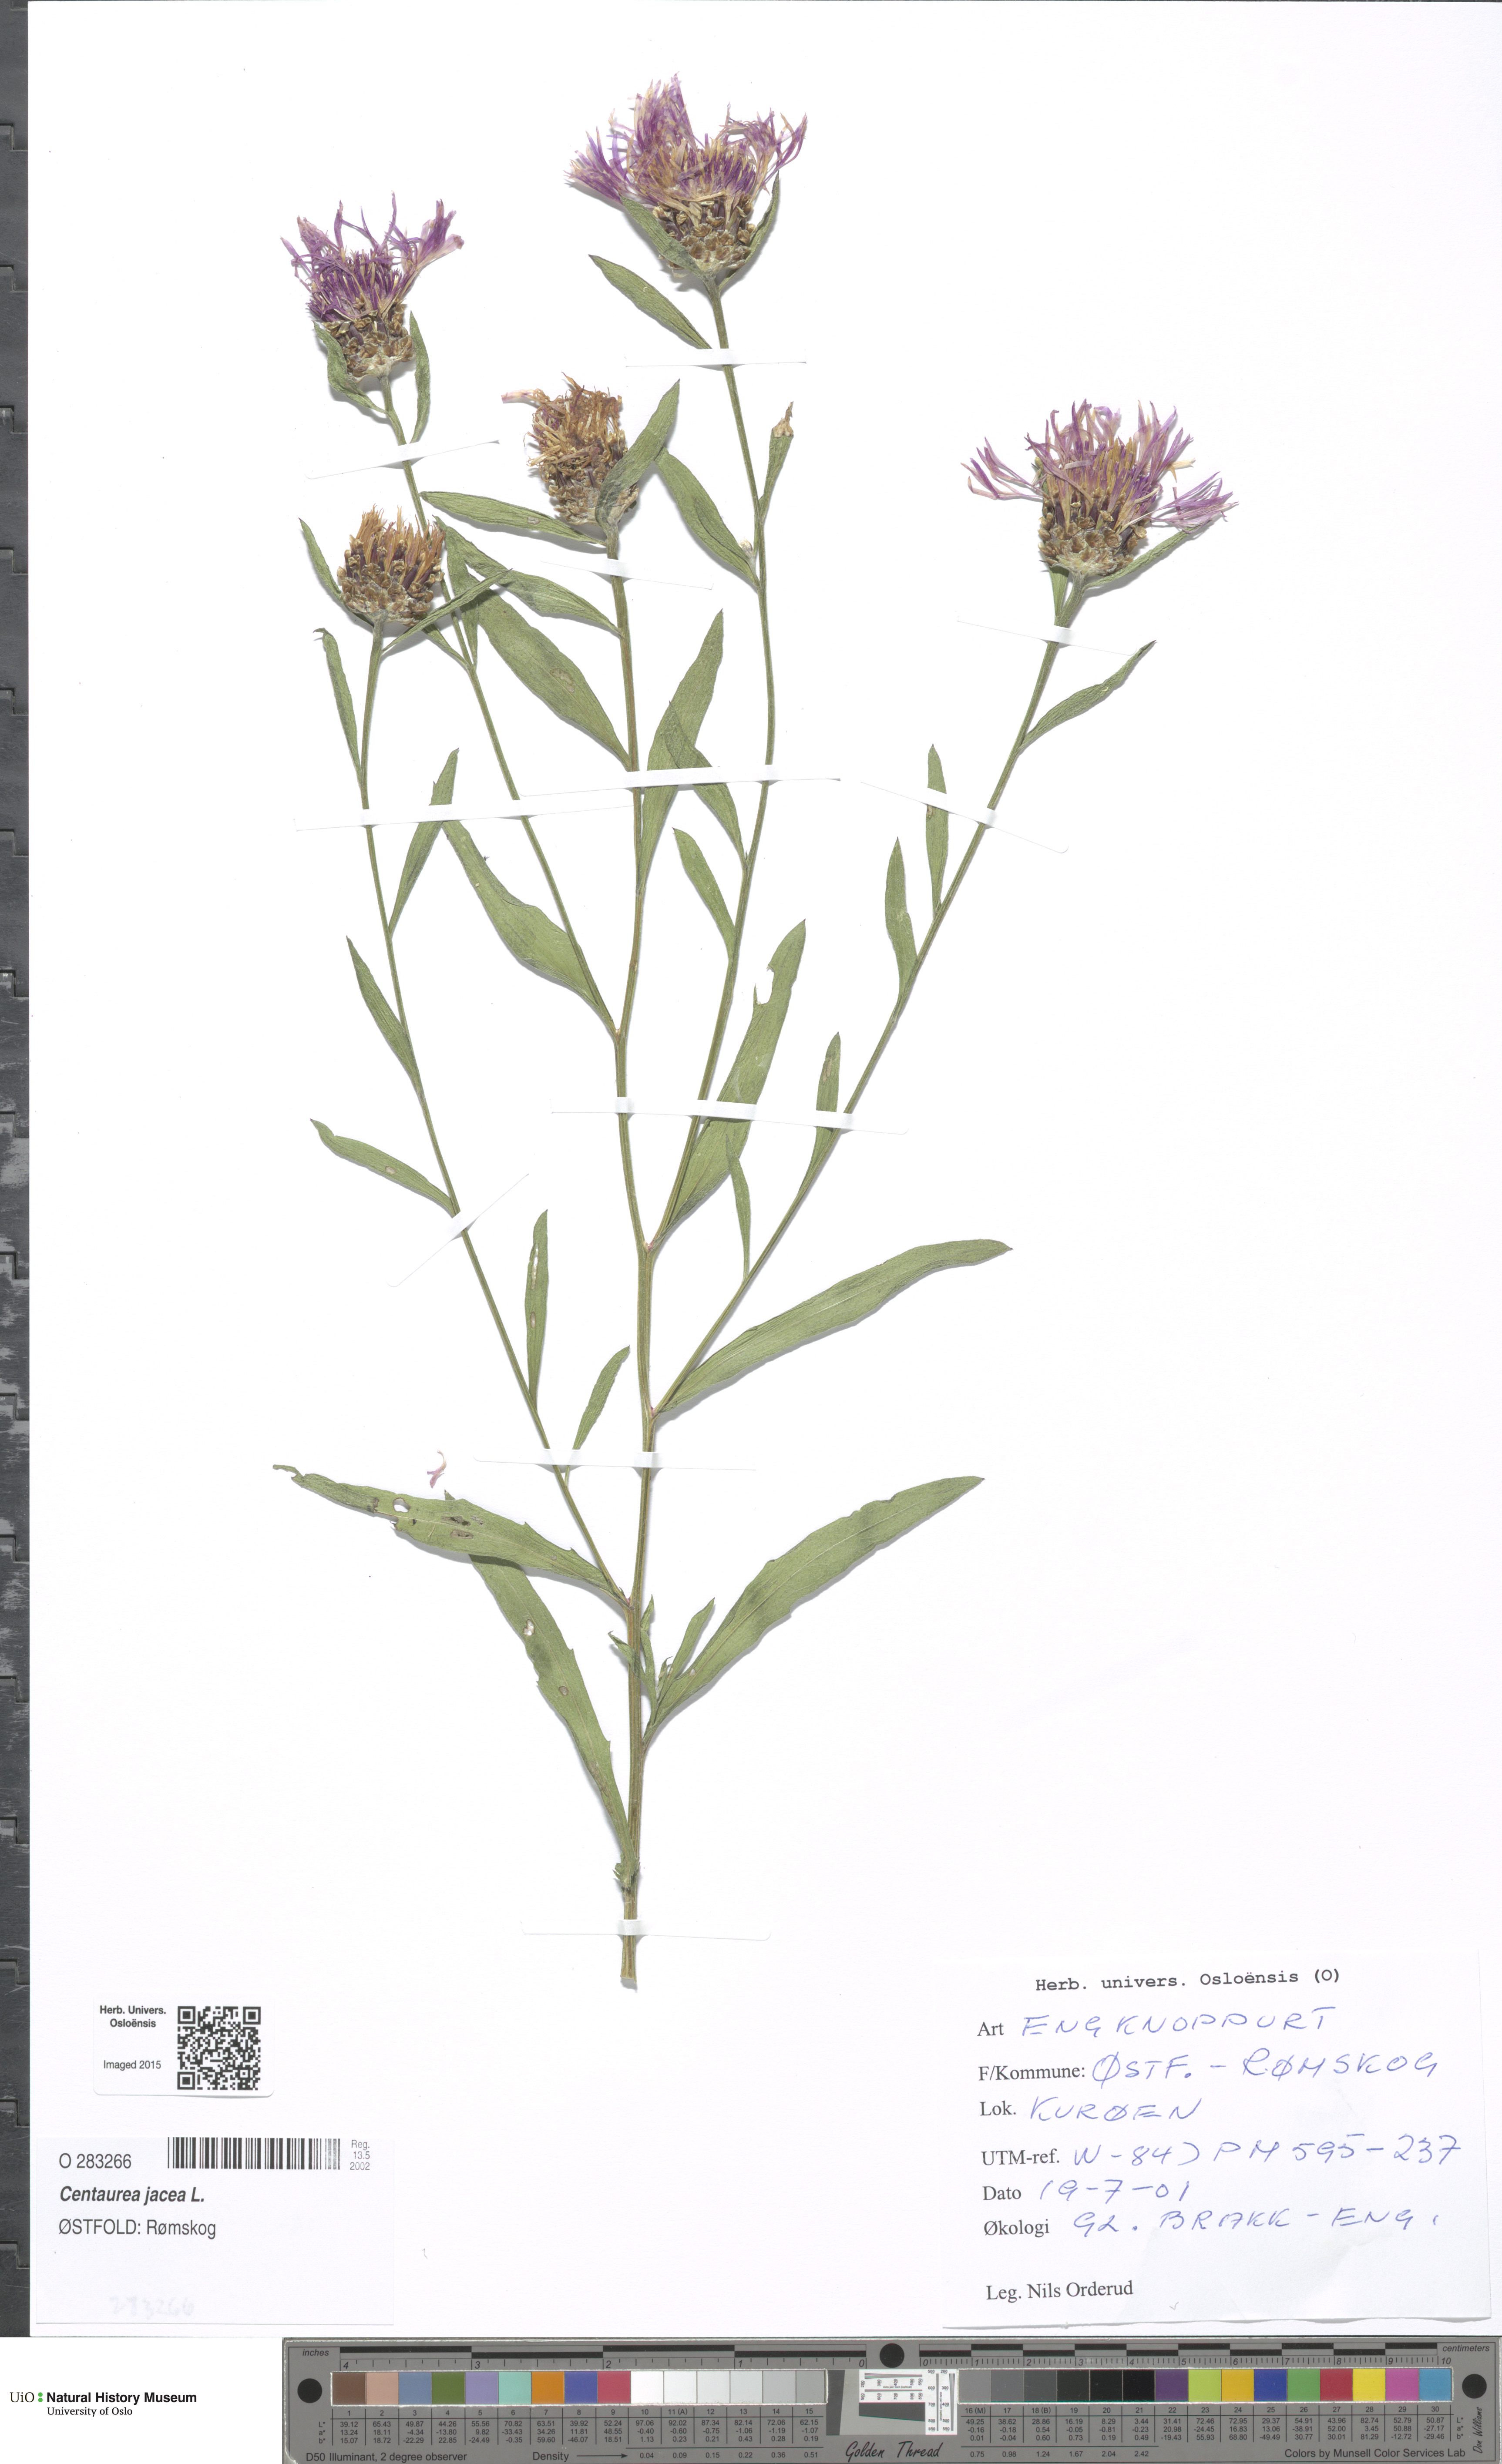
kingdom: Plantae
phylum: Tracheophyta
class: Magnoliopsida
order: Asterales
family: Asteraceae
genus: Centaurea
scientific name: Centaurea jacea
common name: Brown knapweed
